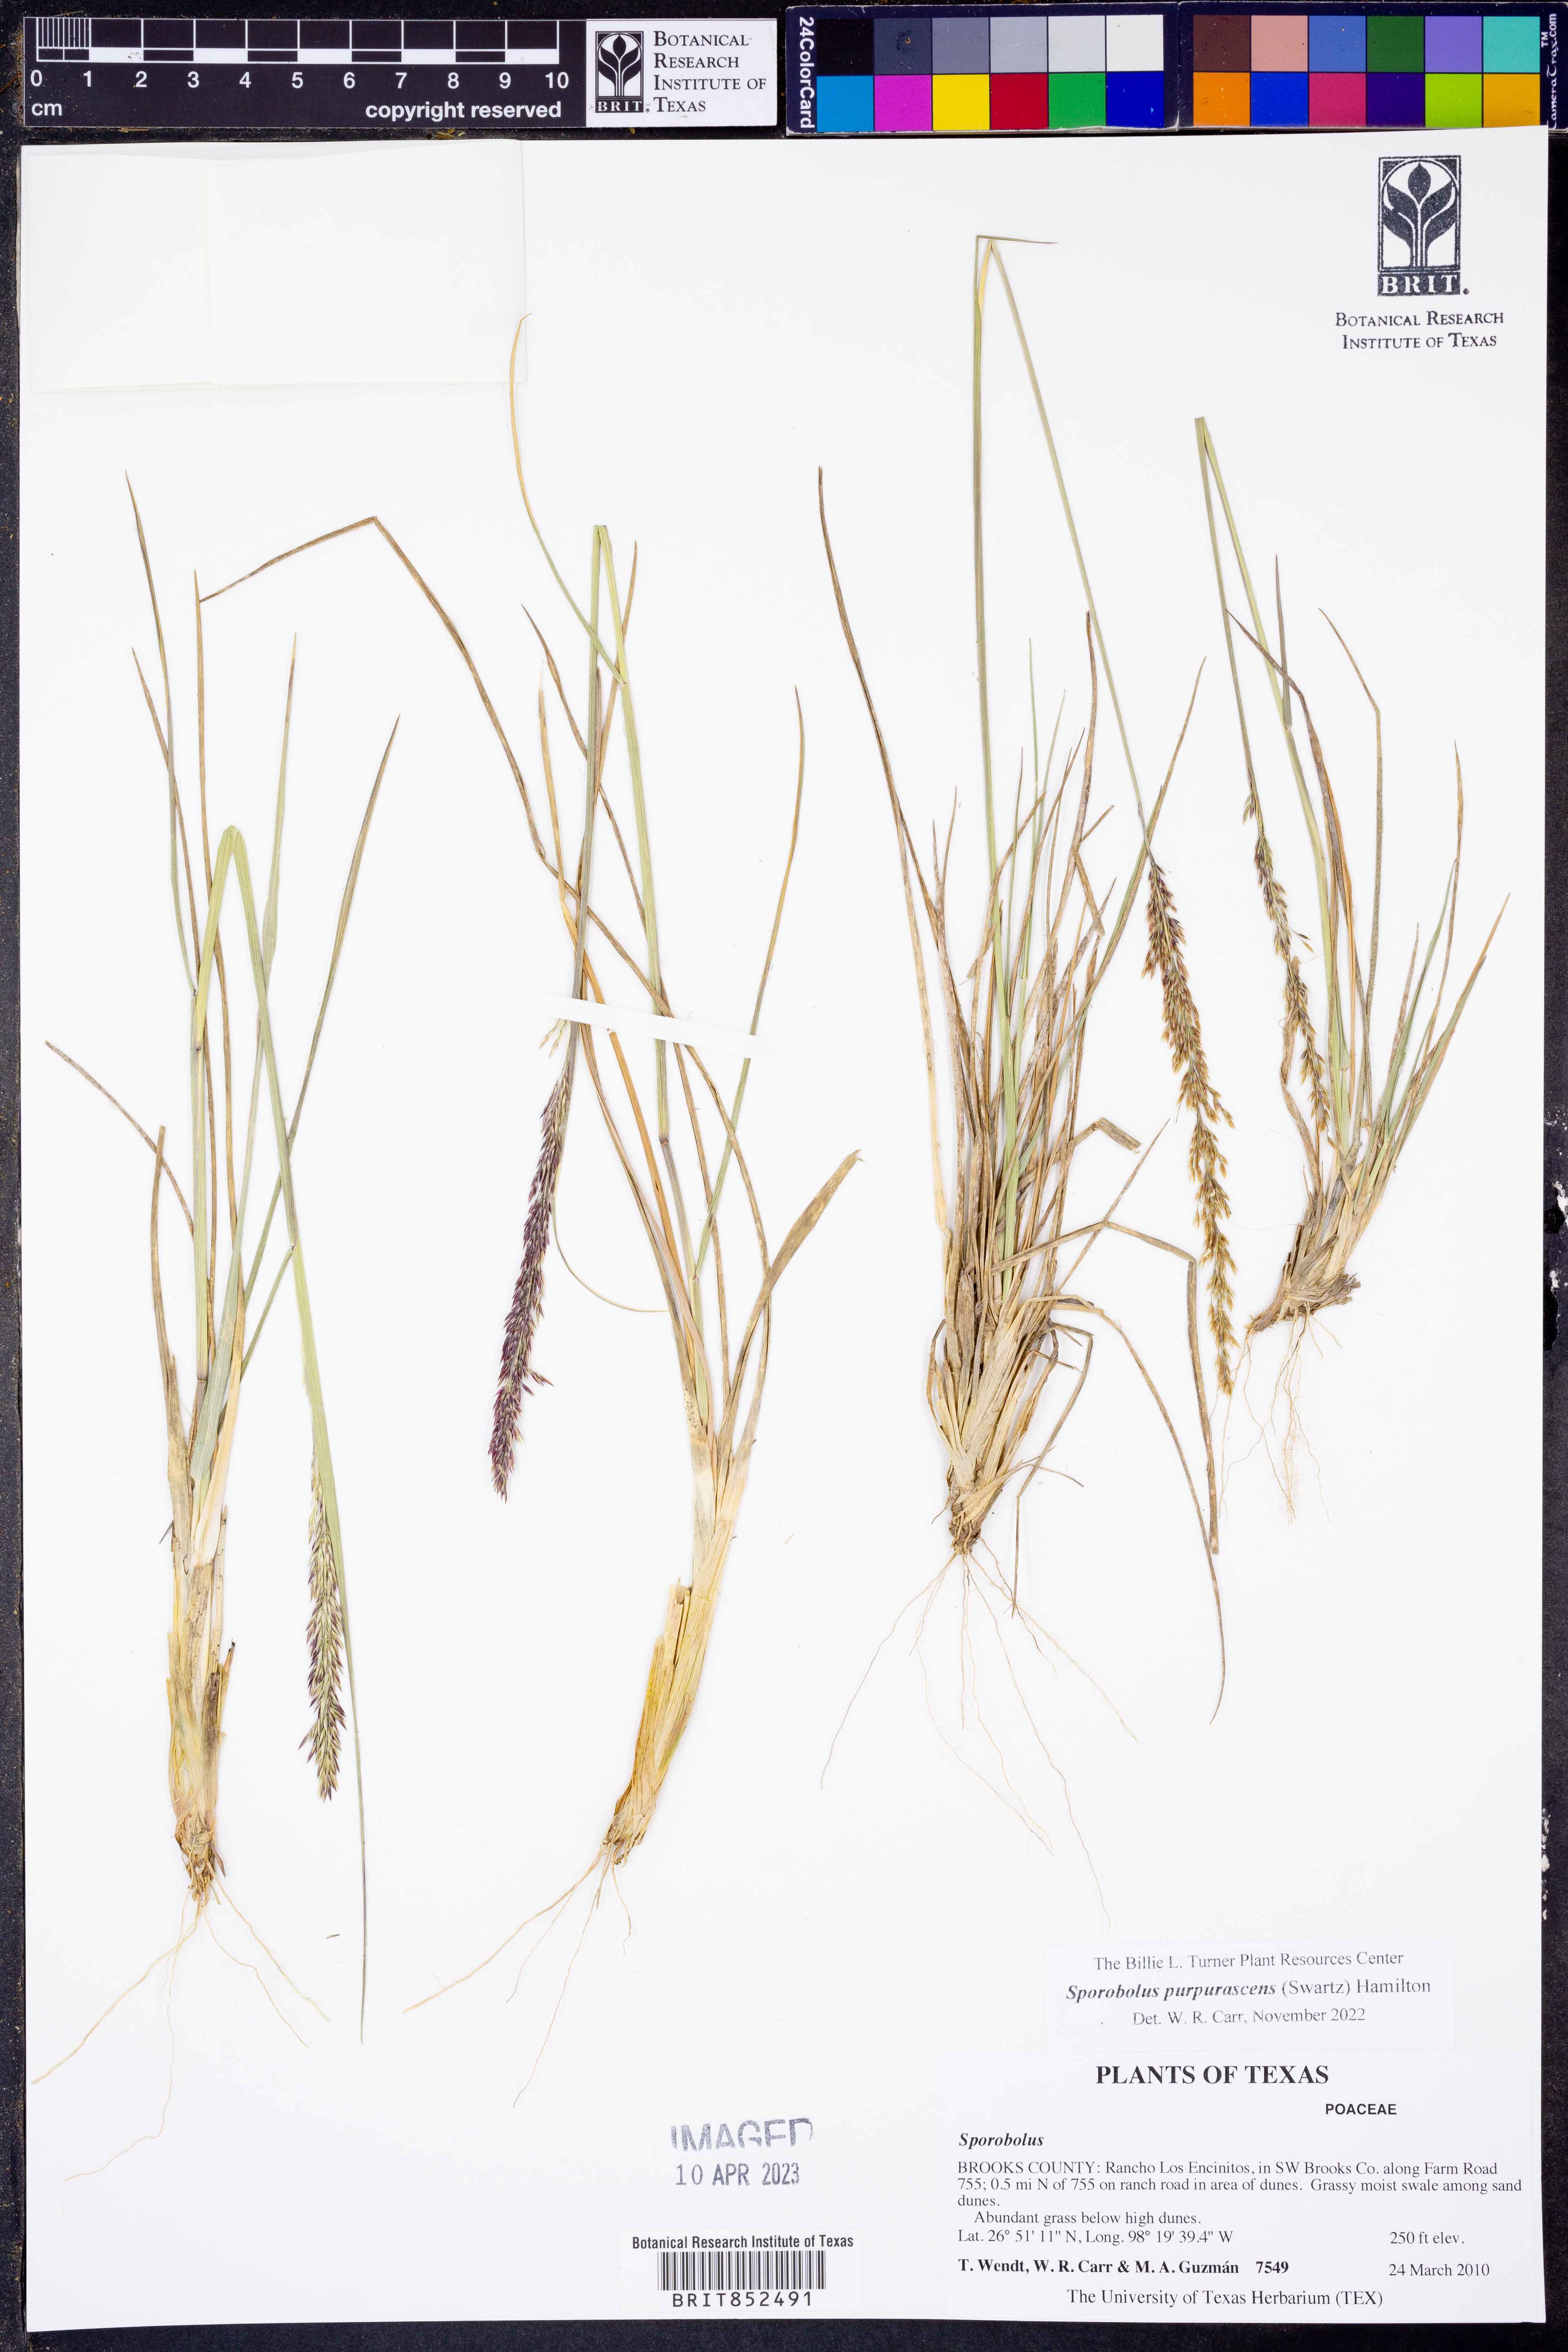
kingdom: Plantae
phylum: Tracheophyta
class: Liliopsida
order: Poales
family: Poaceae
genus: Sporobolus
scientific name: Sporobolus purpurascens
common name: Purple dropseed
